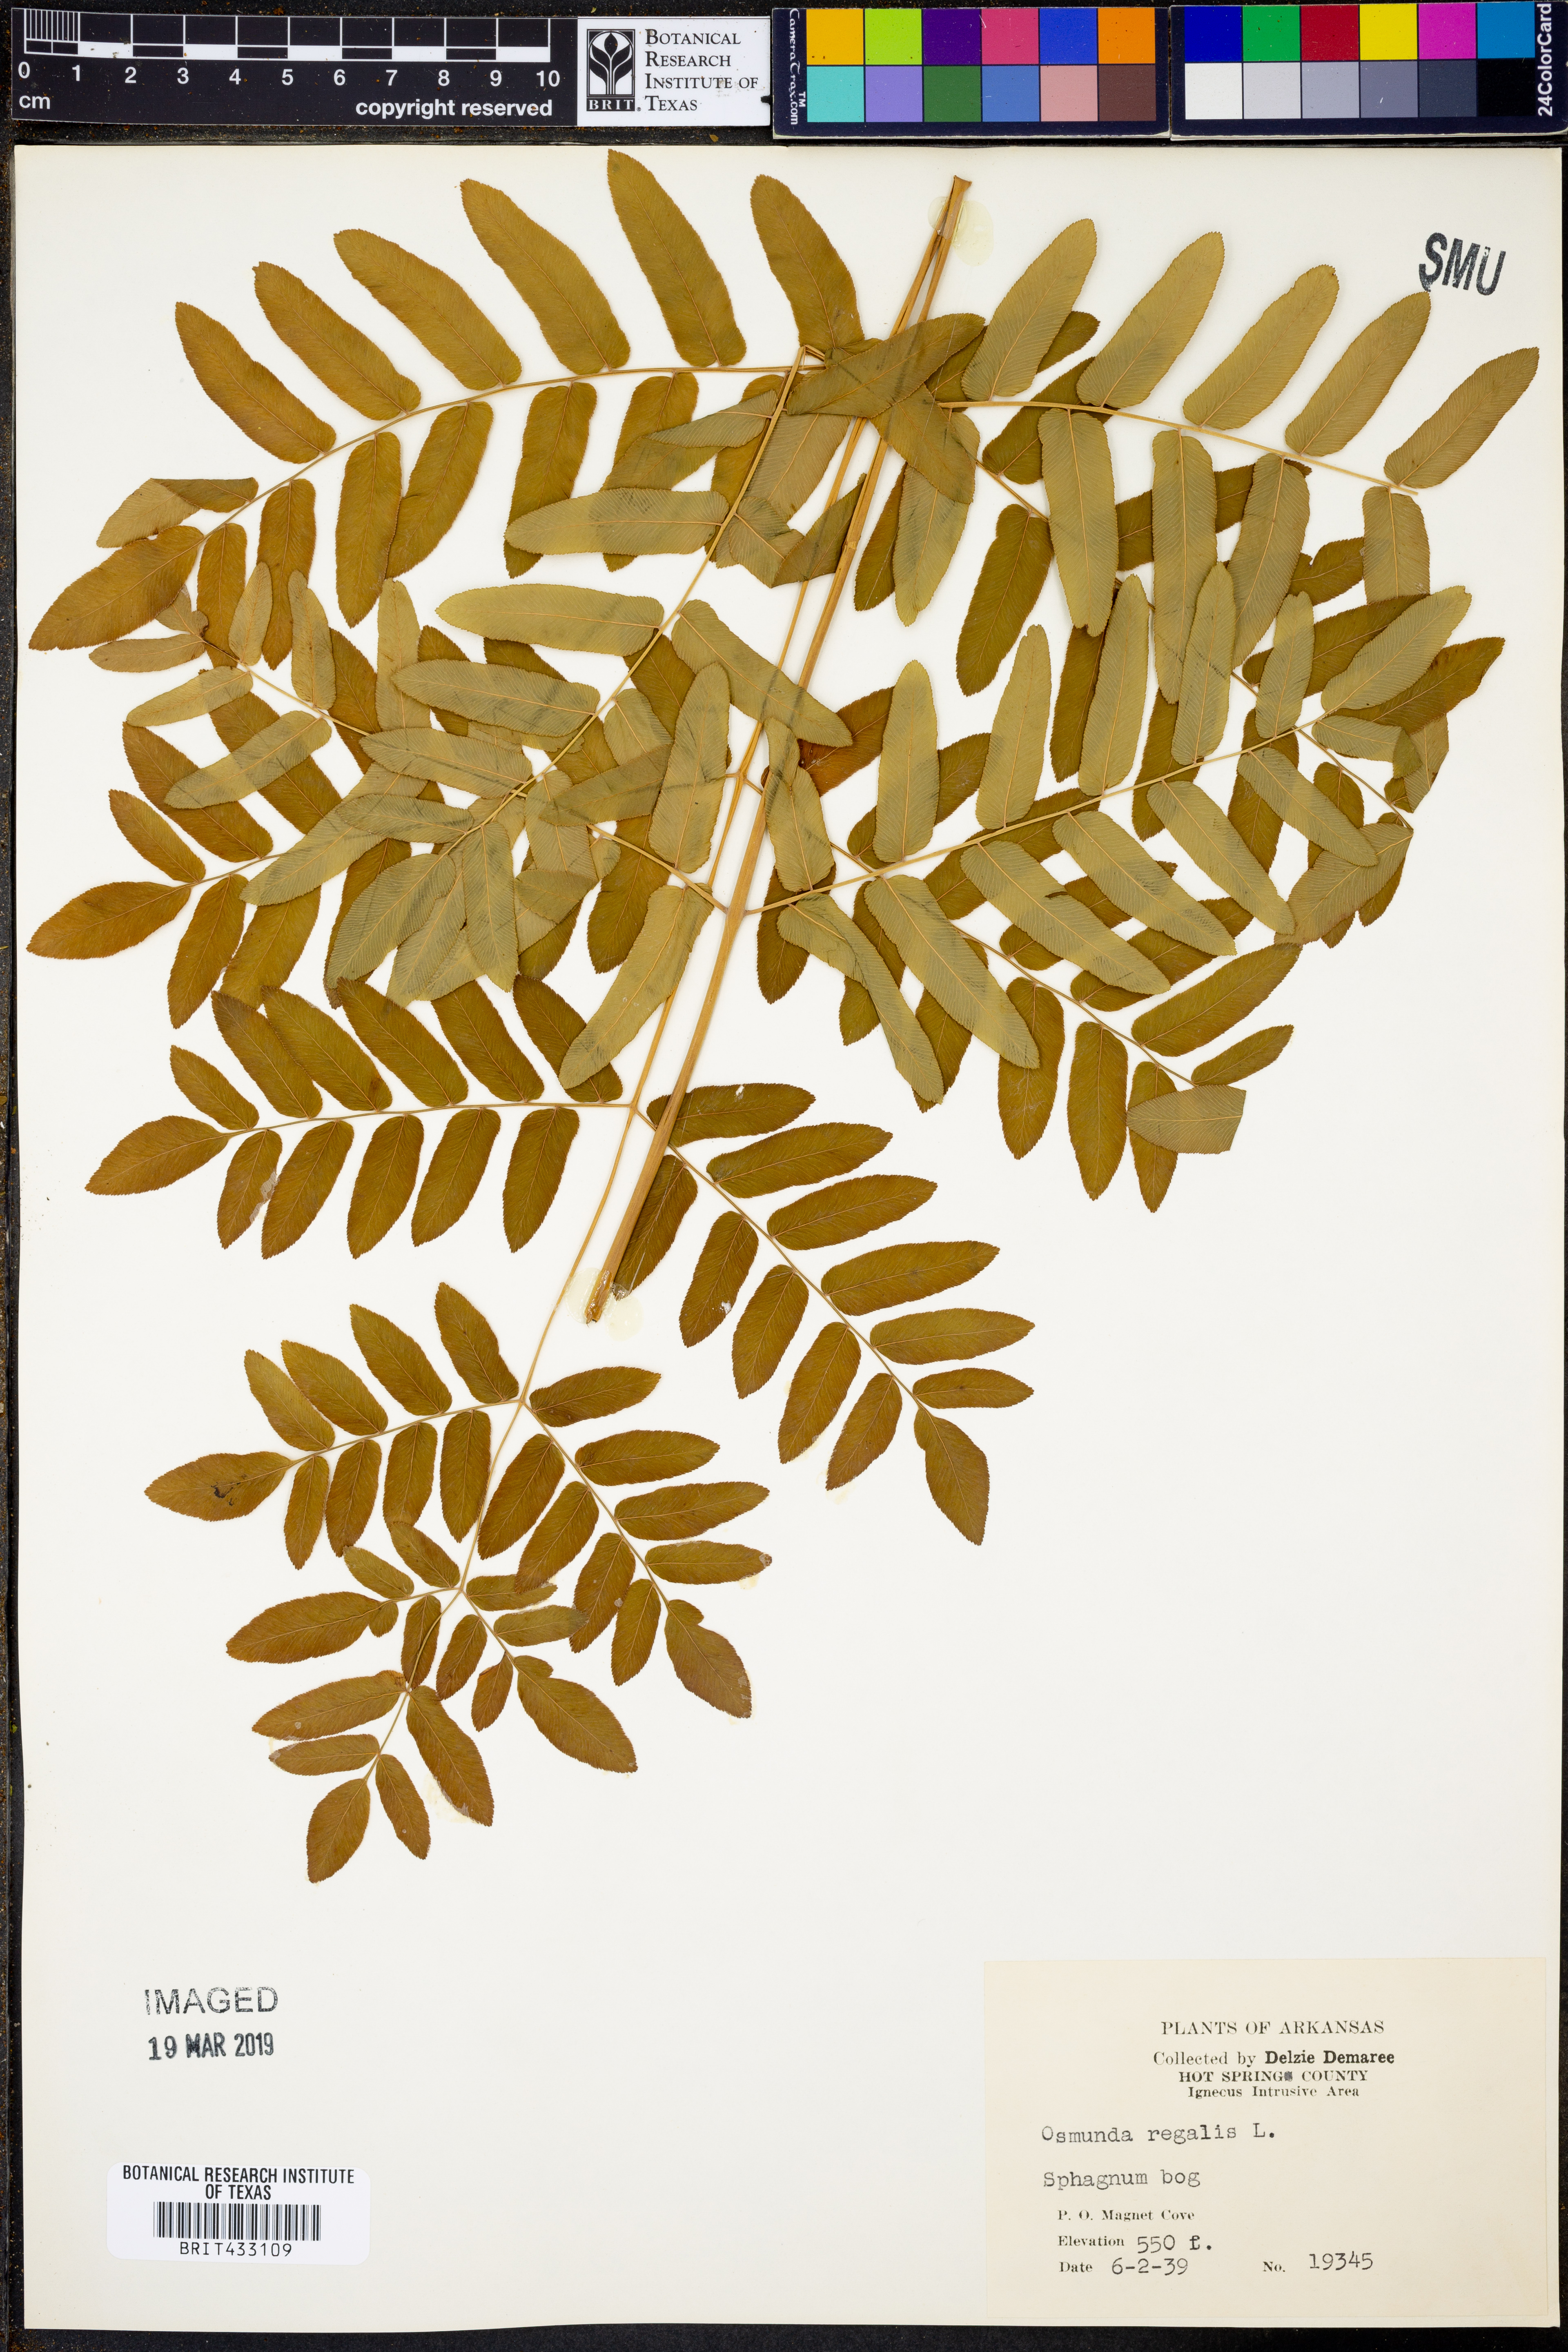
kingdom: Plantae
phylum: Tracheophyta
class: Polypodiopsida
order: Osmundales
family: Osmundaceae
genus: Osmunda
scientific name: Osmunda regalis
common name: Royal fern
